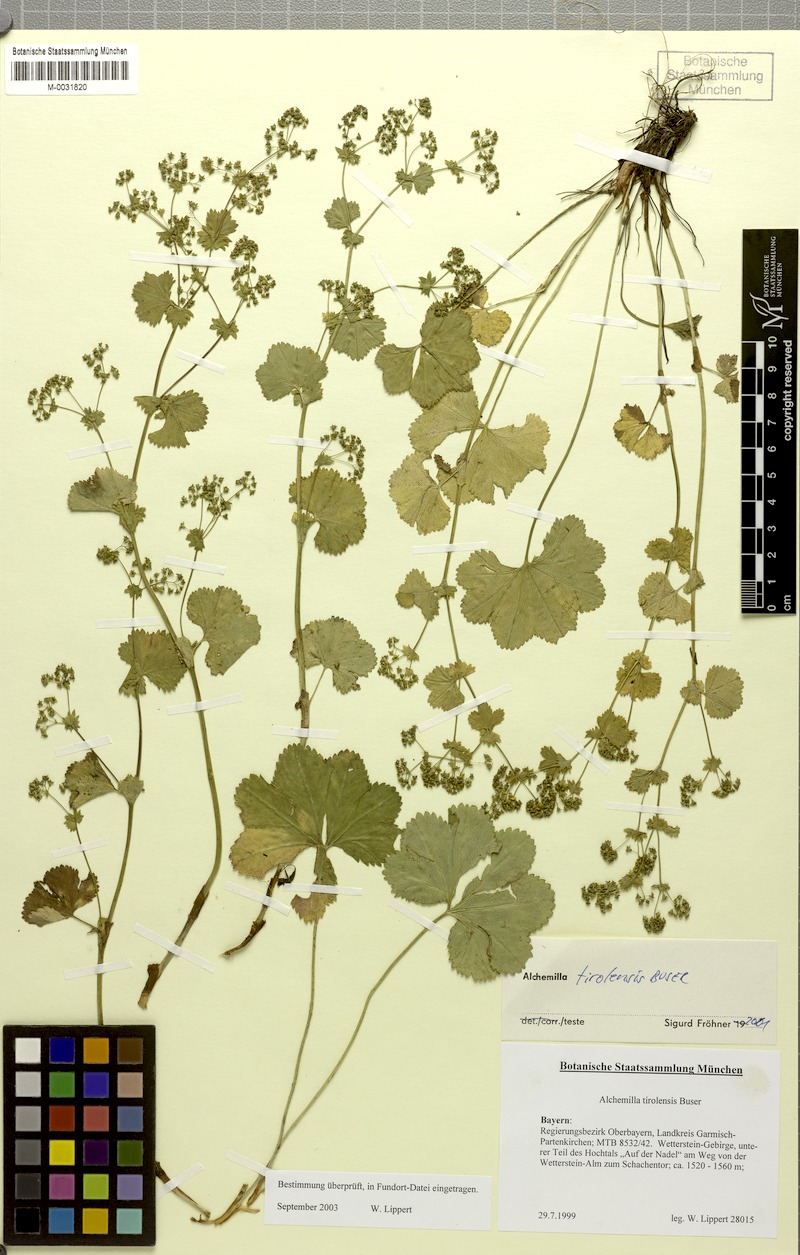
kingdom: Plantae
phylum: Tracheophyta
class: Magnoliopsida
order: Rosales
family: Rosaceae
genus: Alchemilla
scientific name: Alchemilla tirolensis
